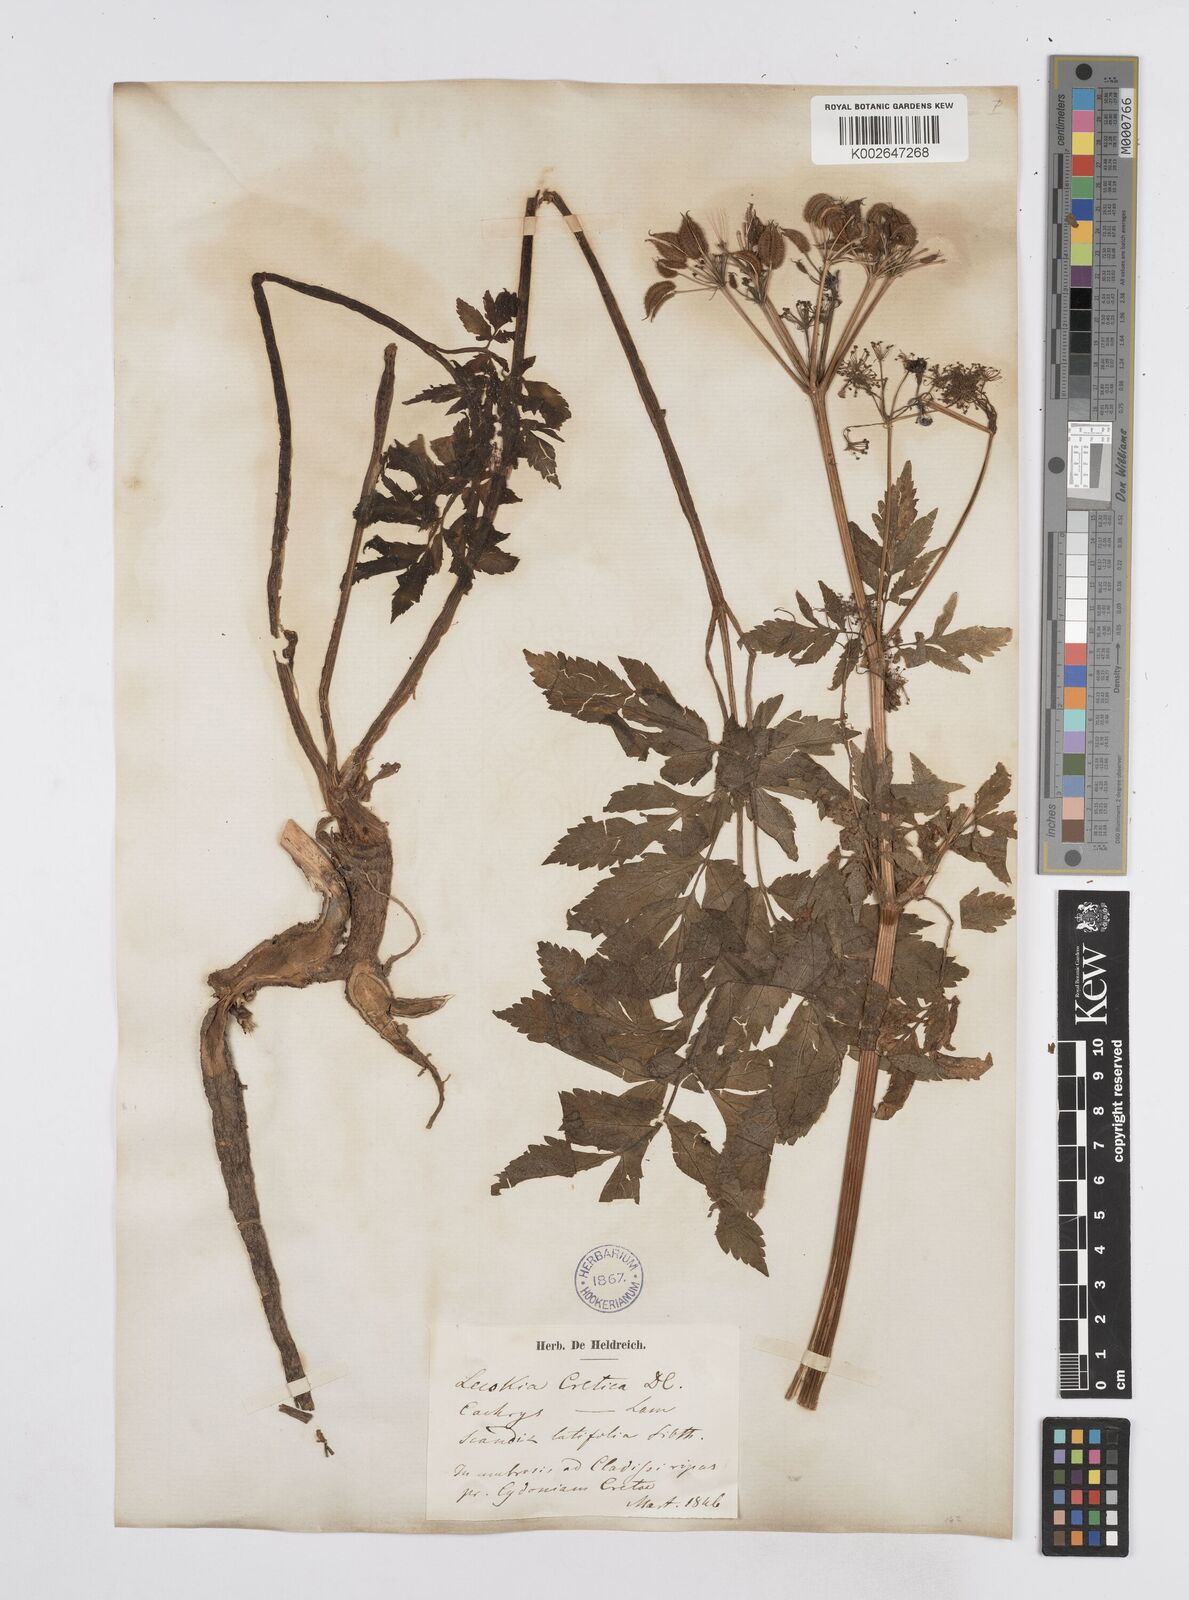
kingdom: Plantae
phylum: Tracheophyta
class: Magnoliopsida
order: Apiales
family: Apiaceae
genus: Lecokia
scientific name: Lecokia
